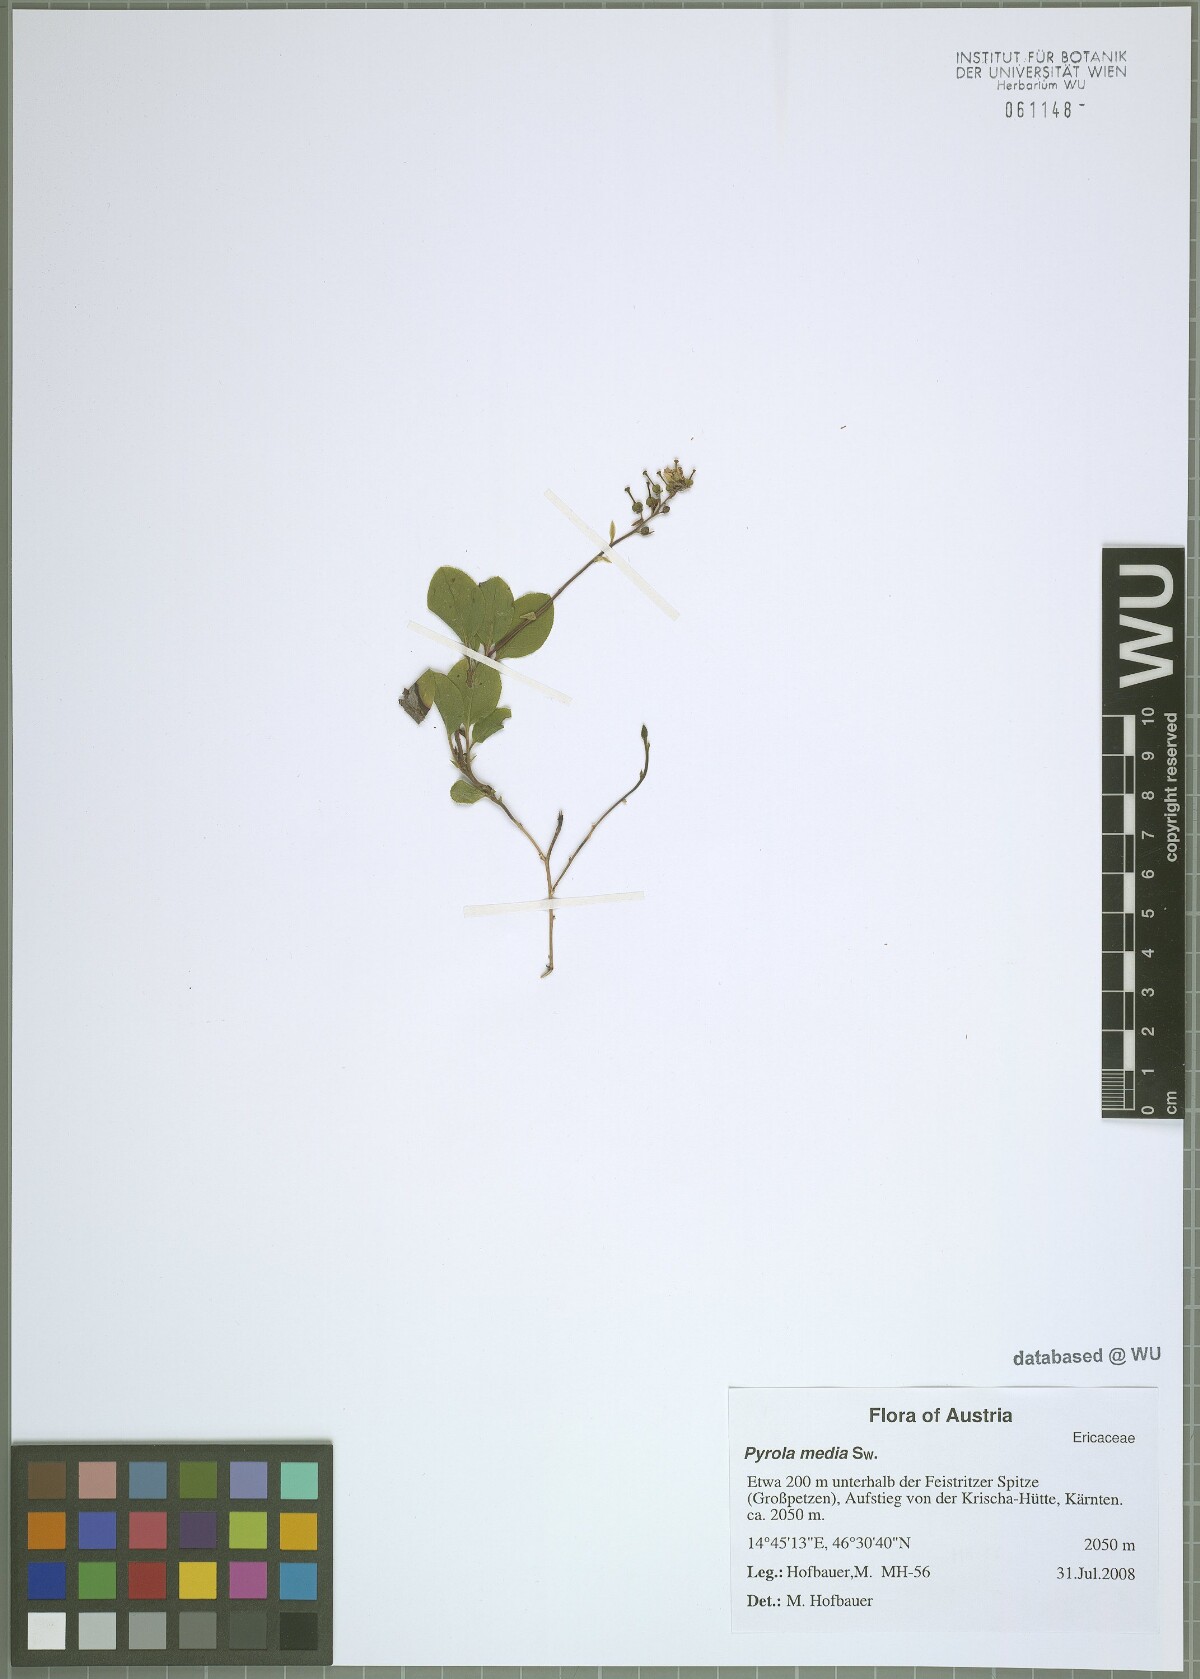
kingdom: Plantae
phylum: Tracheophyta
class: Magnoliopsida
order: Ericales
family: Ericaceae
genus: Orthilia
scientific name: Orthilia secunda
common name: One-sided orthilia
